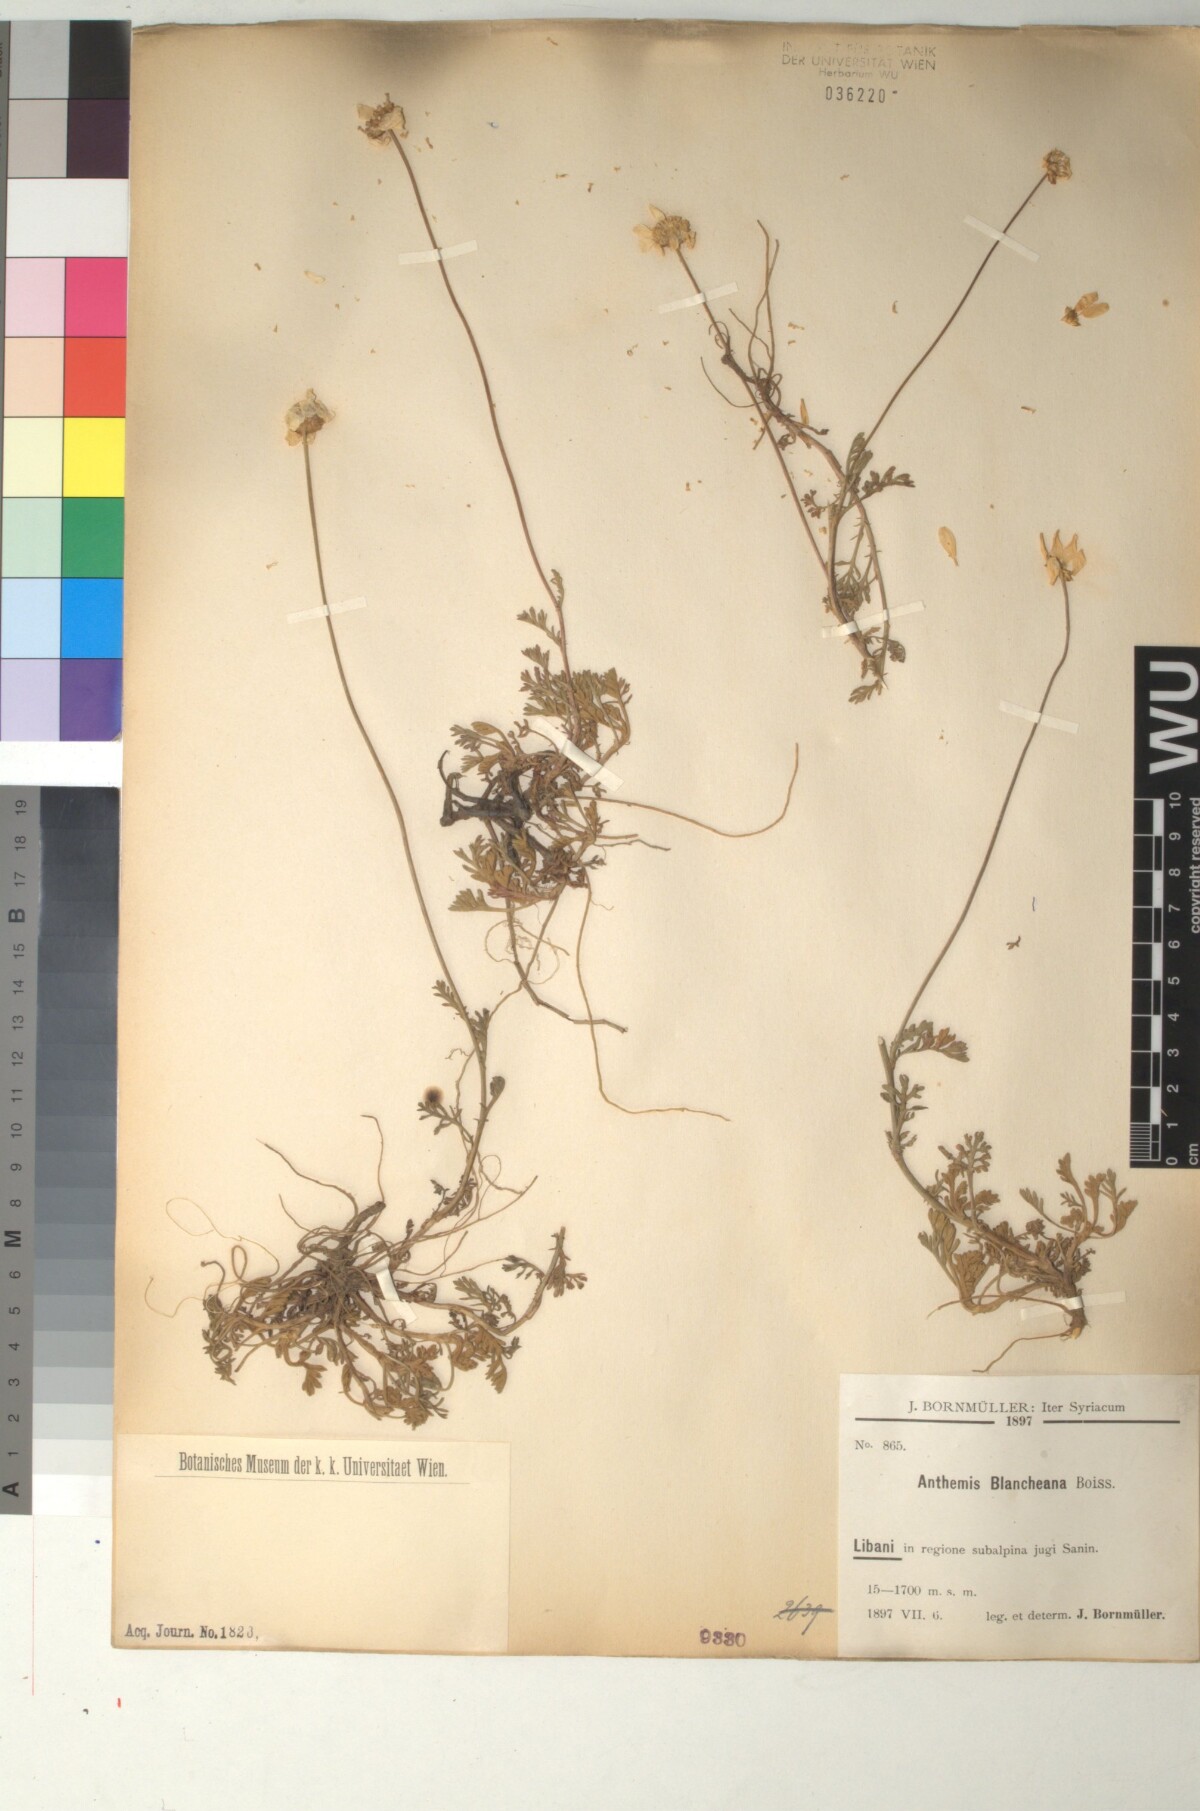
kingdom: Plantae
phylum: Tracheophyta
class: Magnoliopsida
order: Asterales
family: Asteraceae
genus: Anthemis
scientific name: Anthemis cretica
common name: Mountain dog-daisy
